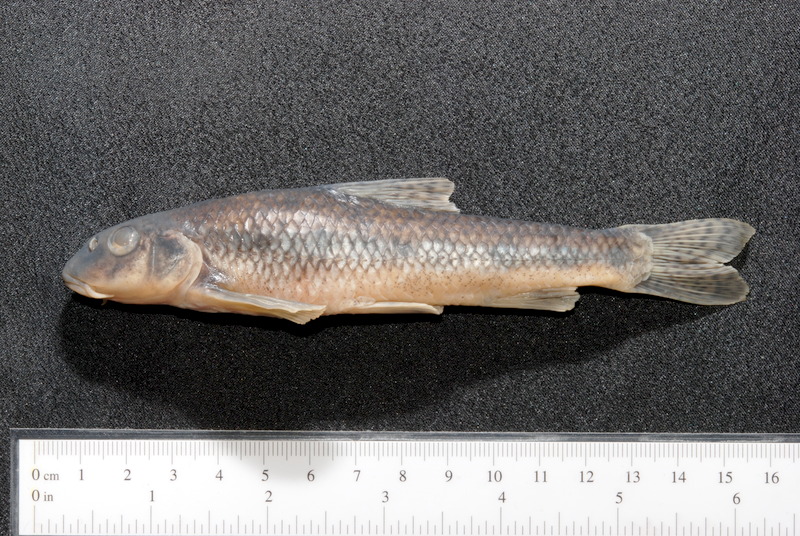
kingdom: Animalia
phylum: Chordata
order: Cypriniformes
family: Cyprinidae
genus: Gobio
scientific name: Gobio gobio
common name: Gudgeon
